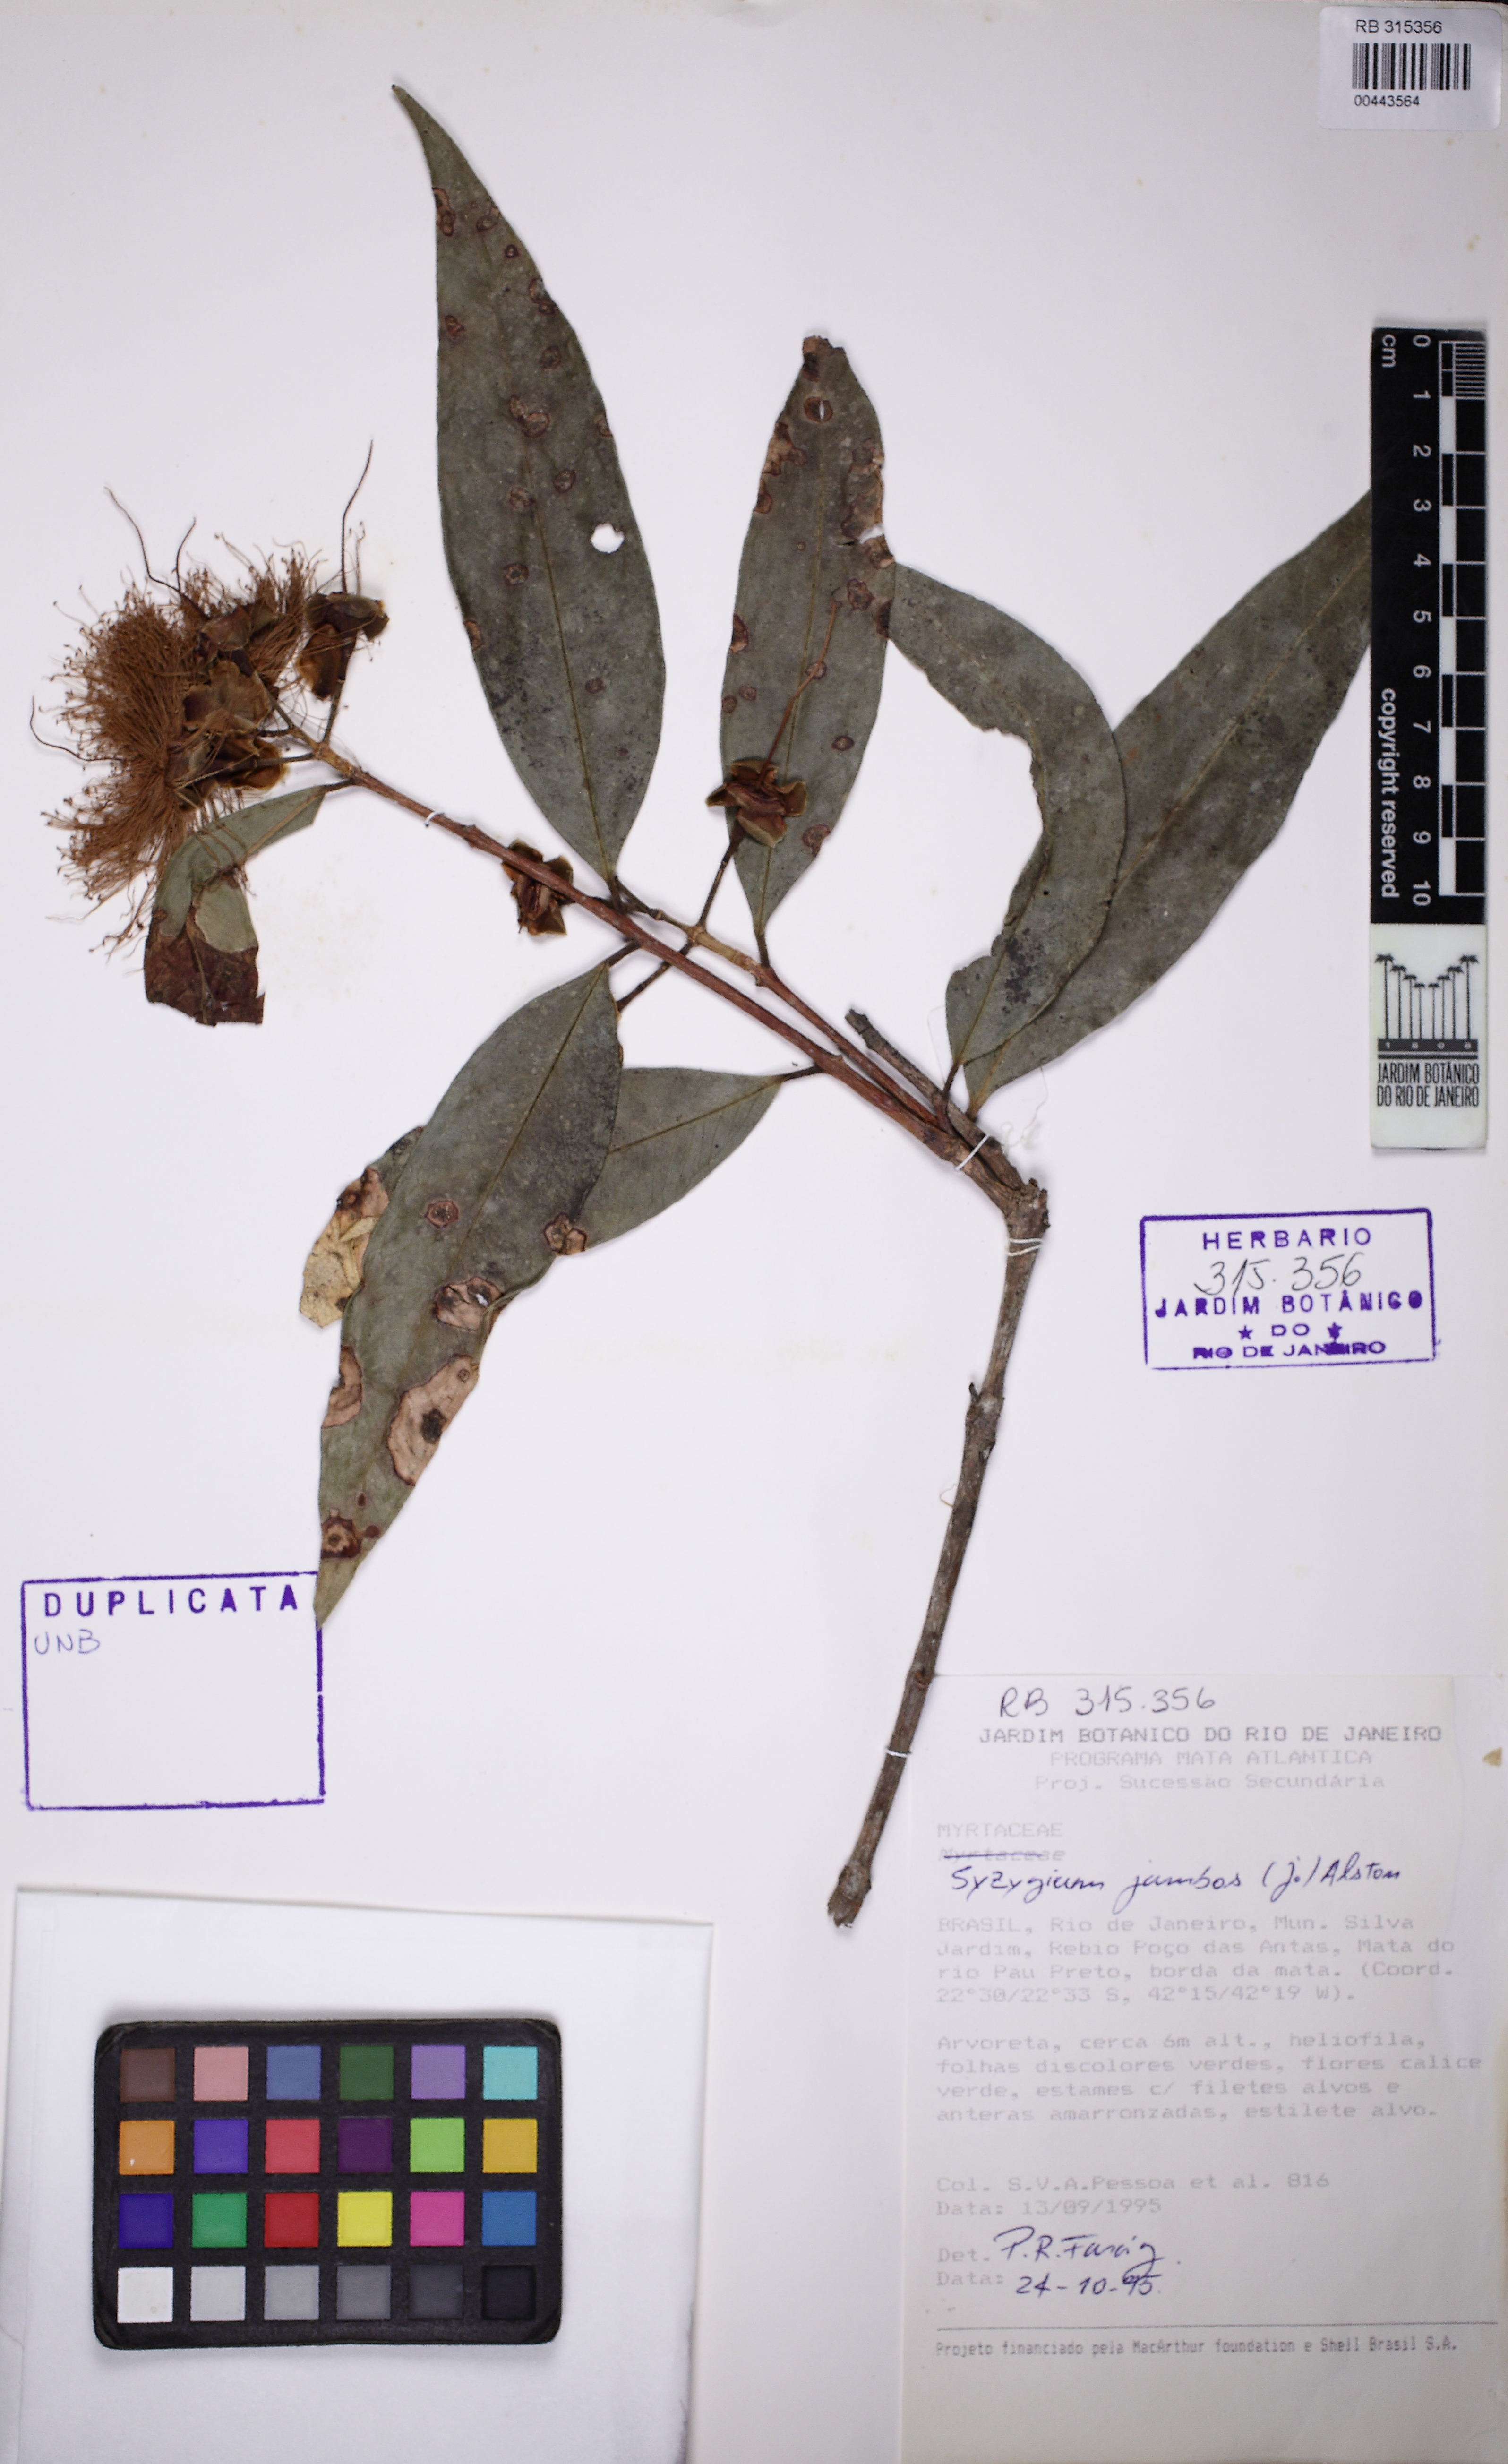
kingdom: Plantae
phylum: Tracheophyta
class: Magnoliopsida
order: Myrtales
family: Myrtaceae
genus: Syzygium
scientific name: Syzygium jambos
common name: Malabar plum
